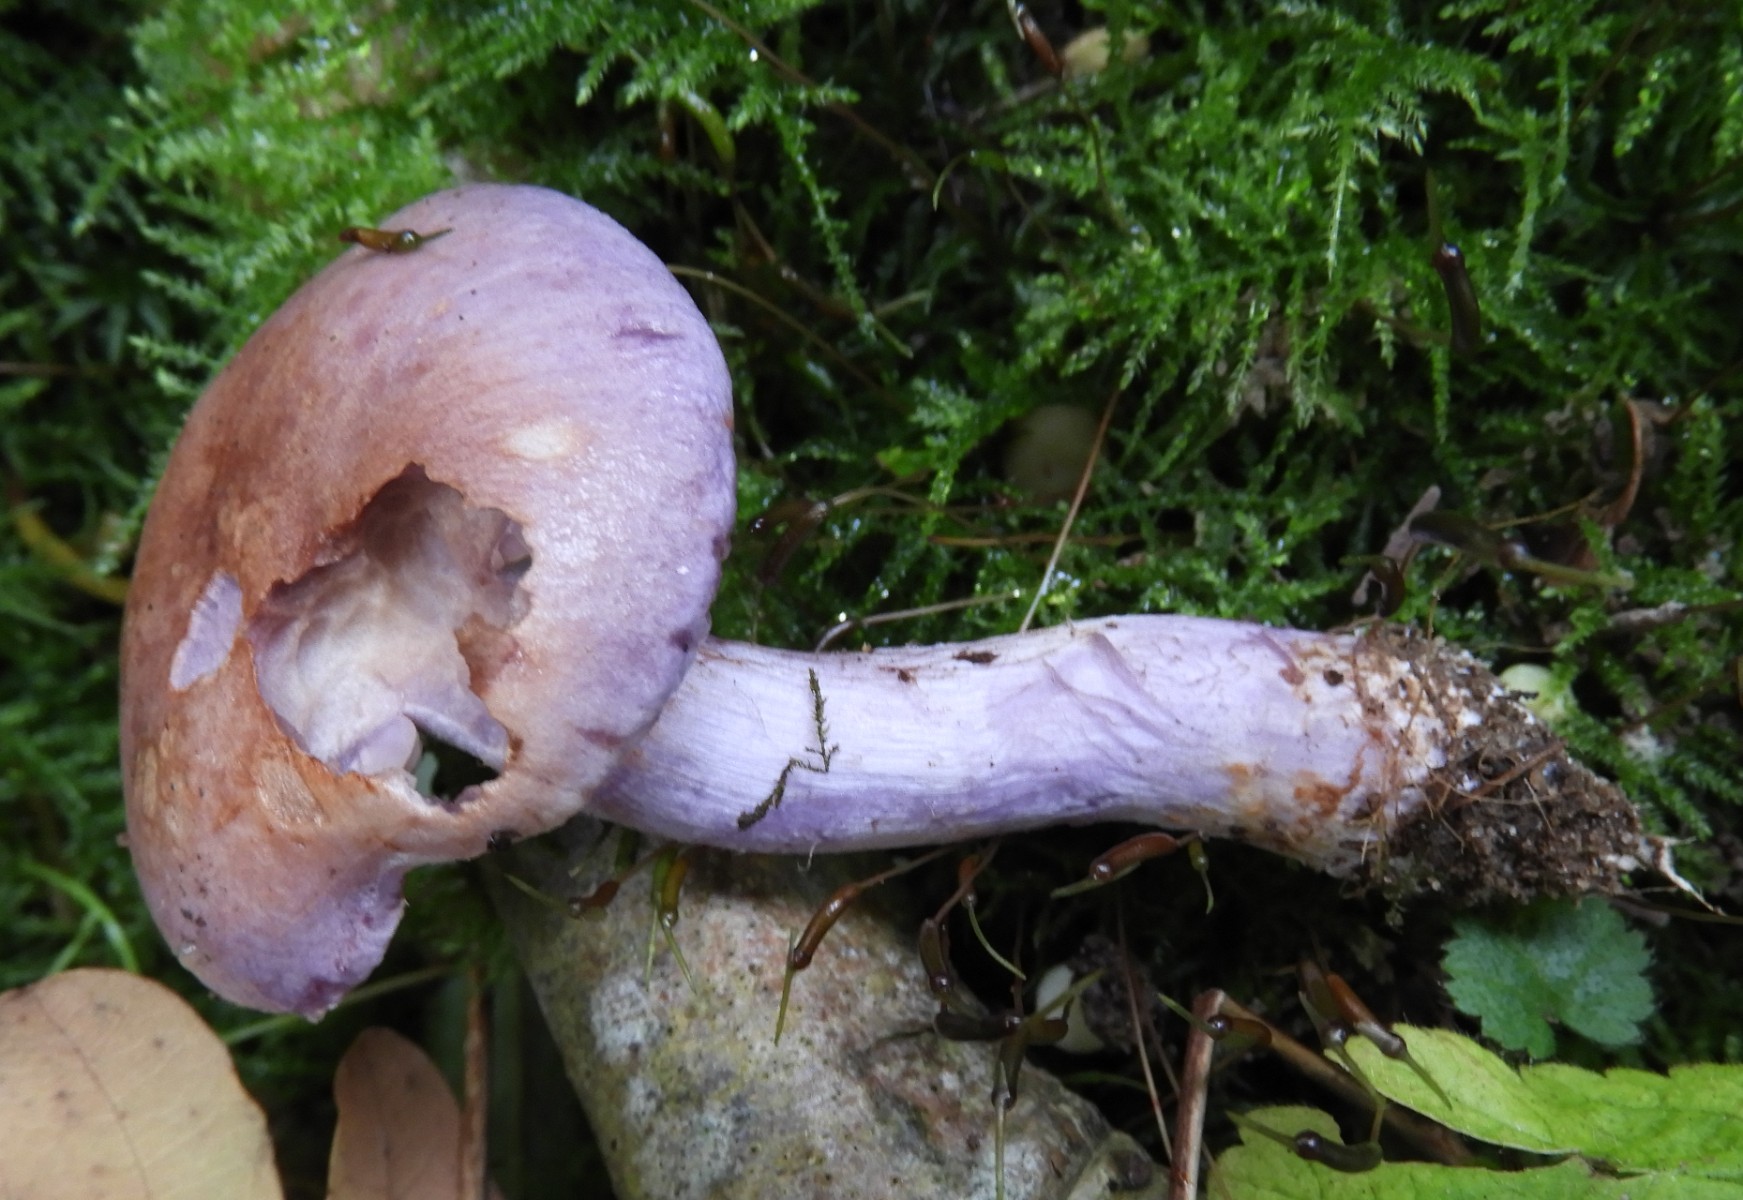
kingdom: Fungi
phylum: Basidiomycota
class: Agaricomycetes
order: Agaricales
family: Cortinariaceae
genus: Thaxterogaster
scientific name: Thaxterogaster subporphyropus
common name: ametyst-slørhat
